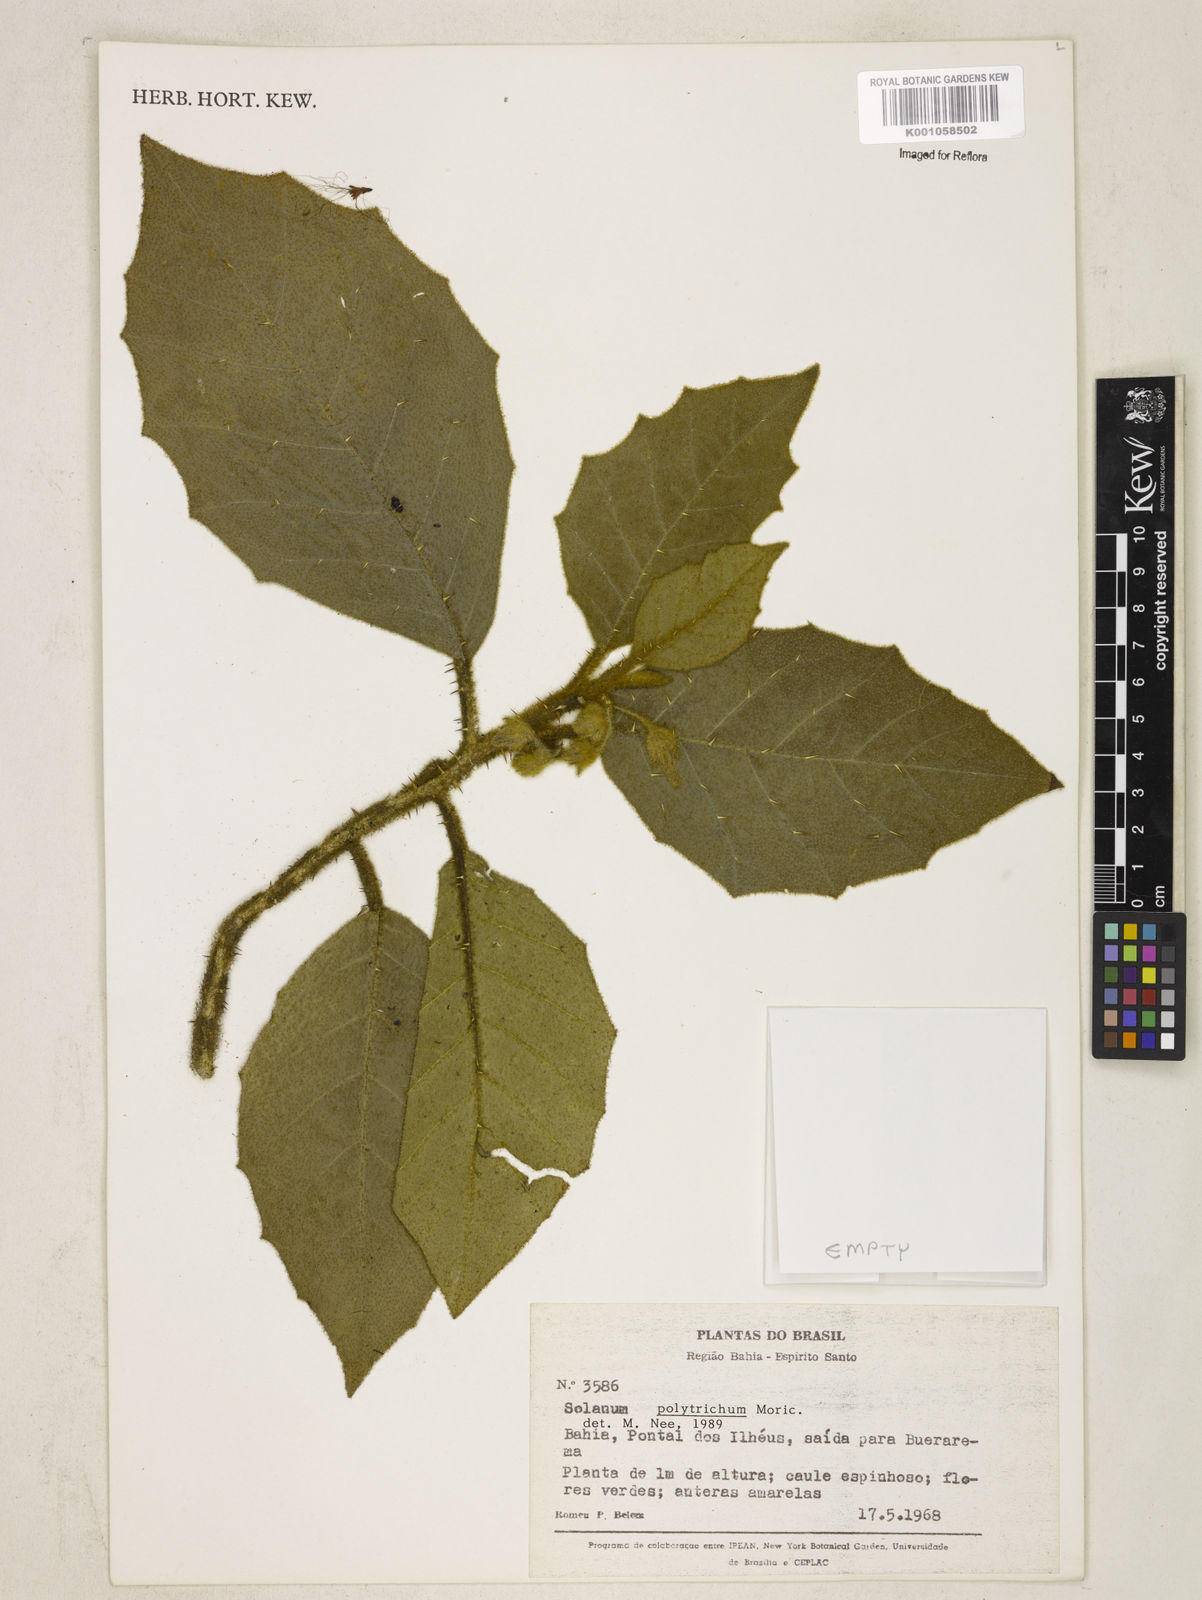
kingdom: Plantae
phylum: Tracheophyta
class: Magnoliopsida
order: Solanales
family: Solanaceae
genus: Solanum
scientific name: Solanum polytrichum
